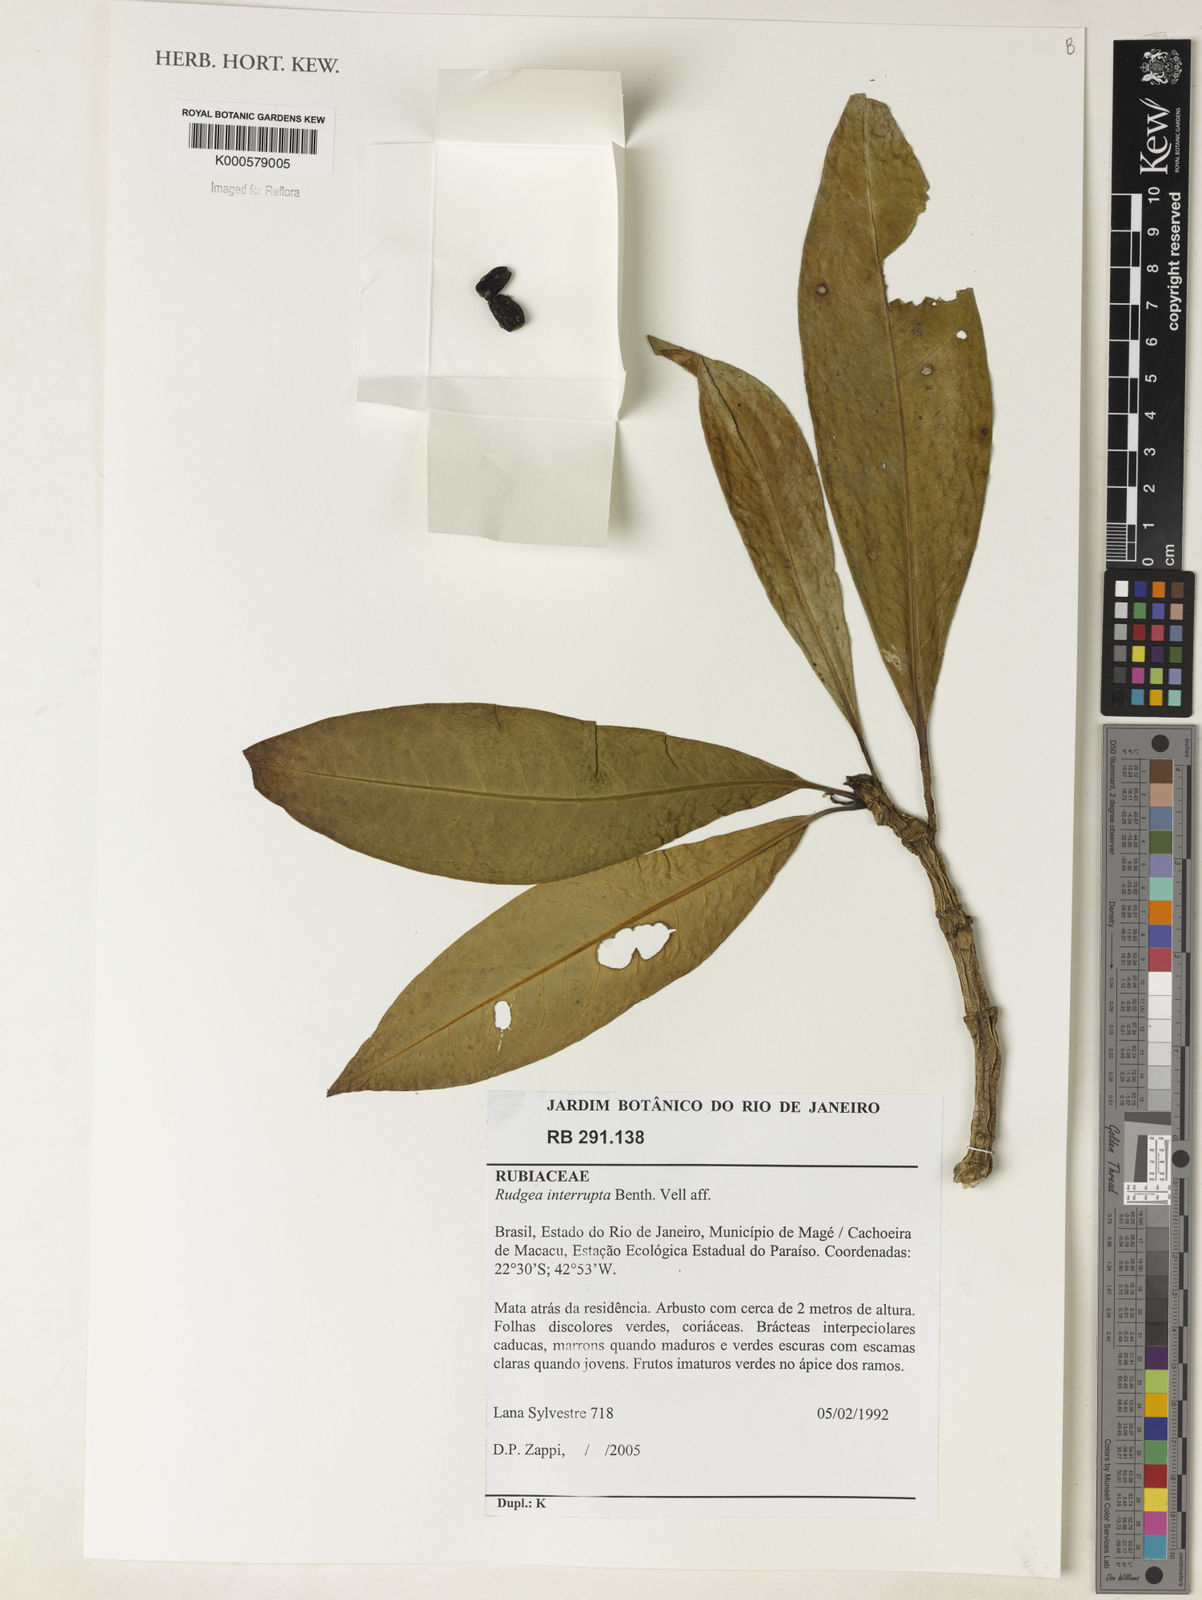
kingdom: Plantae
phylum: Tracheophyta
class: Magnoliopsida
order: Gentianales
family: Rubiaceae
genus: Rudgea
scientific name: Rudgea interrupta
